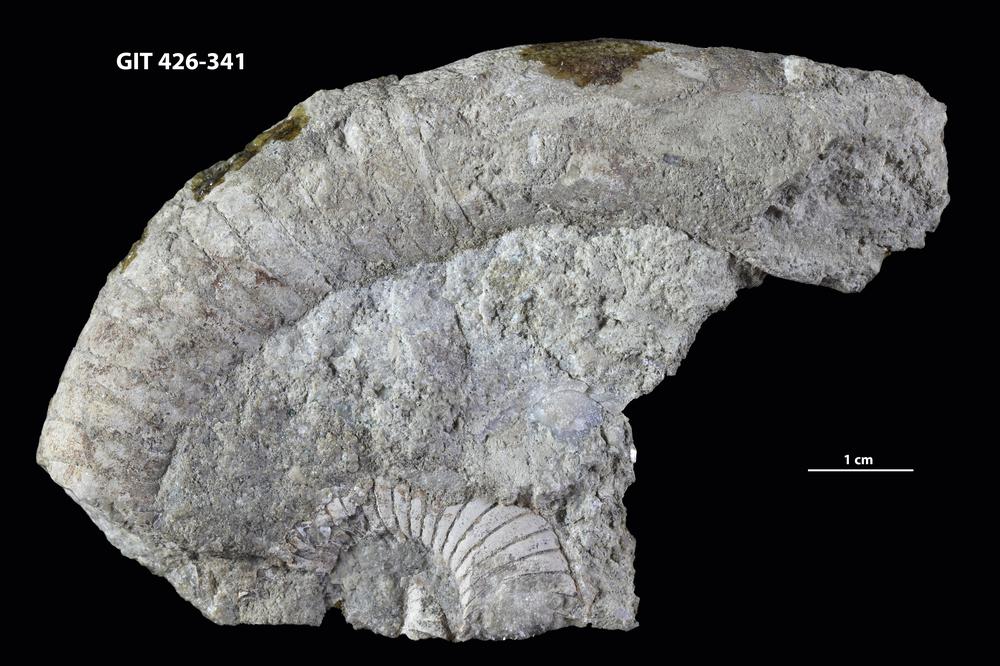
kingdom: Animalia
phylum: Mollusca
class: Cephalopoda
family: Estonioceratidae
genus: Tragoceras
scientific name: Tragoceras
